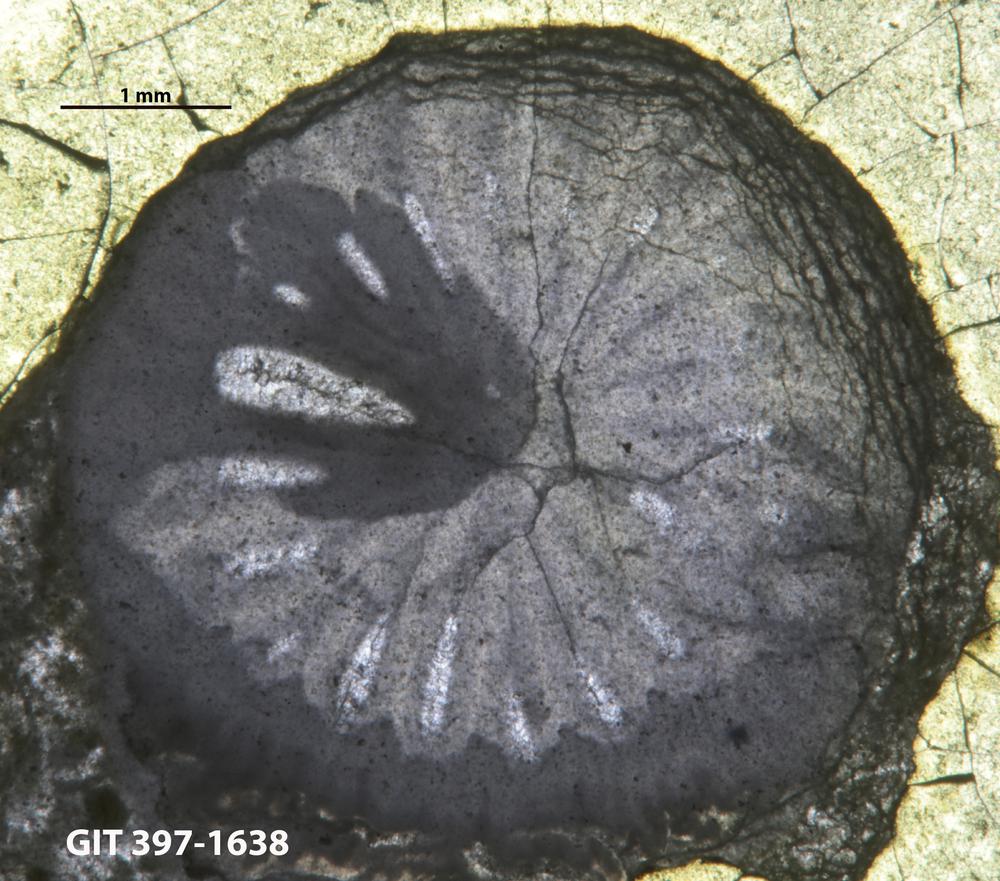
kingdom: Animalia
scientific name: Animalia
